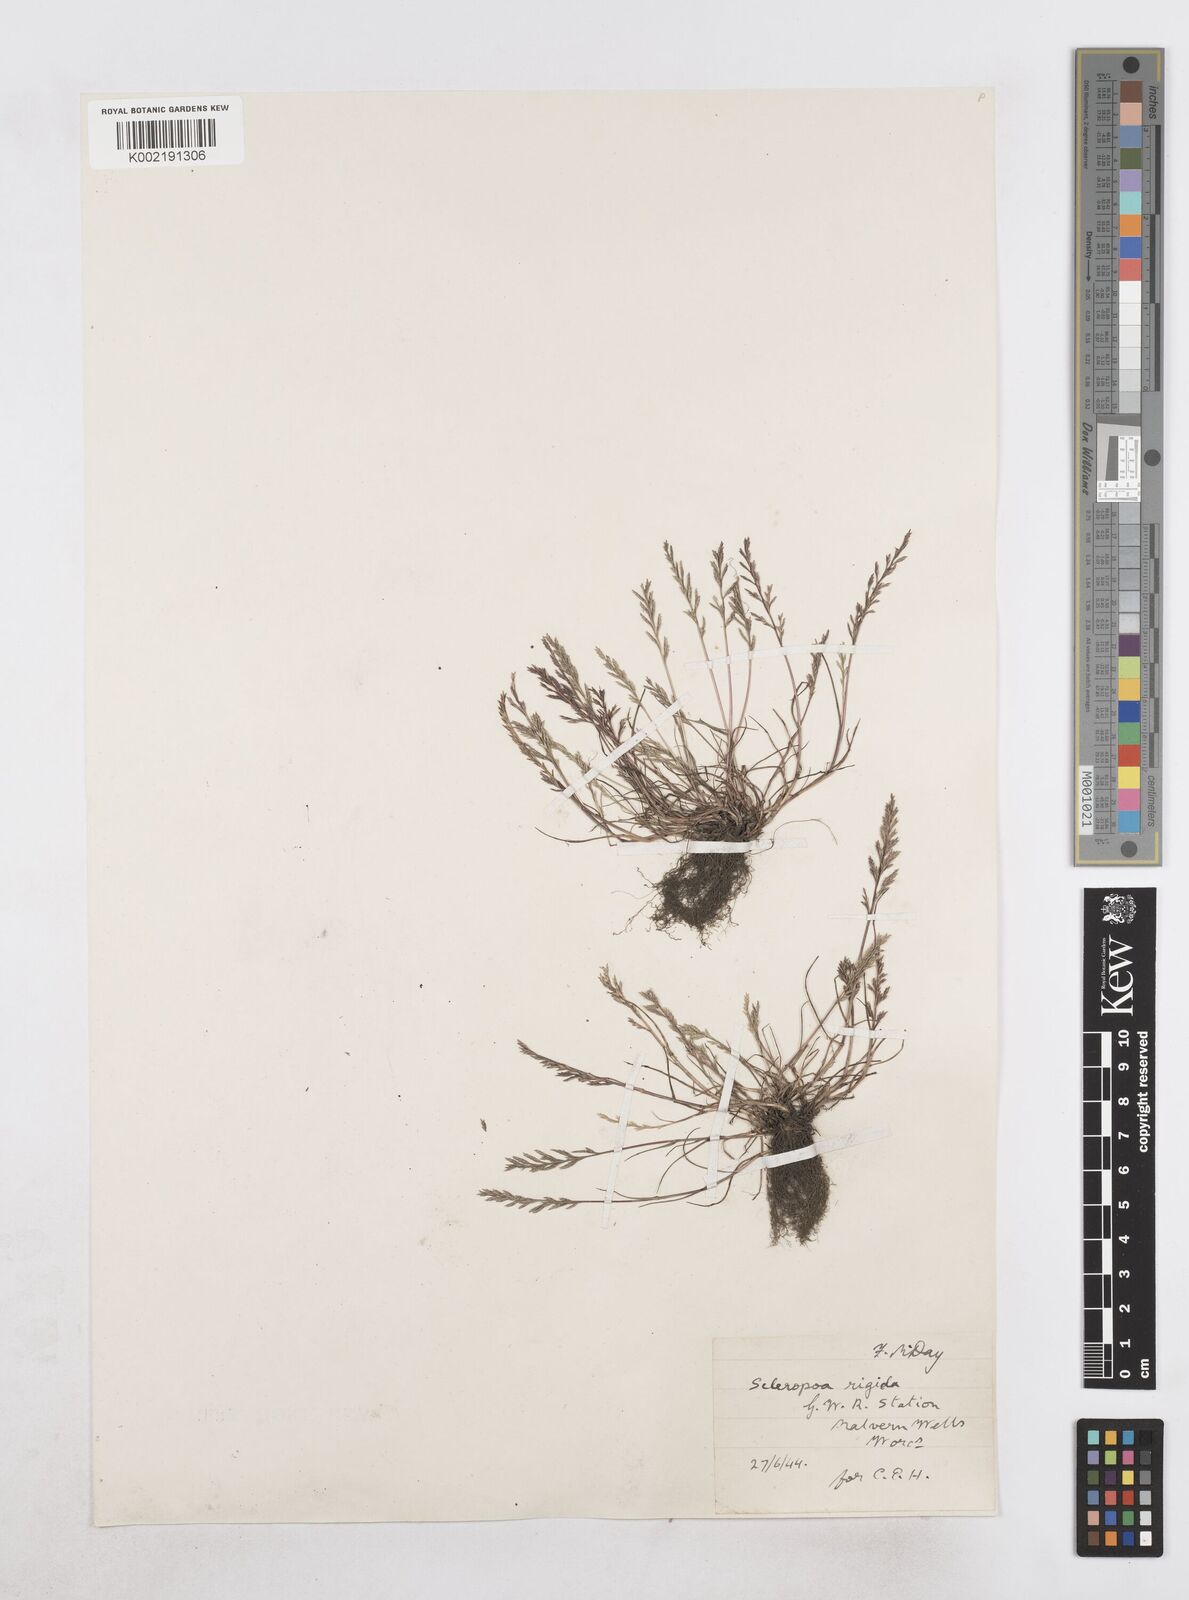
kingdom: Plantae
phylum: Tracheophyta
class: Liliopsida
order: Poales
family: Poaceae
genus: Catapodium
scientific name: Catapodium rigidum
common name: Fern-grass
